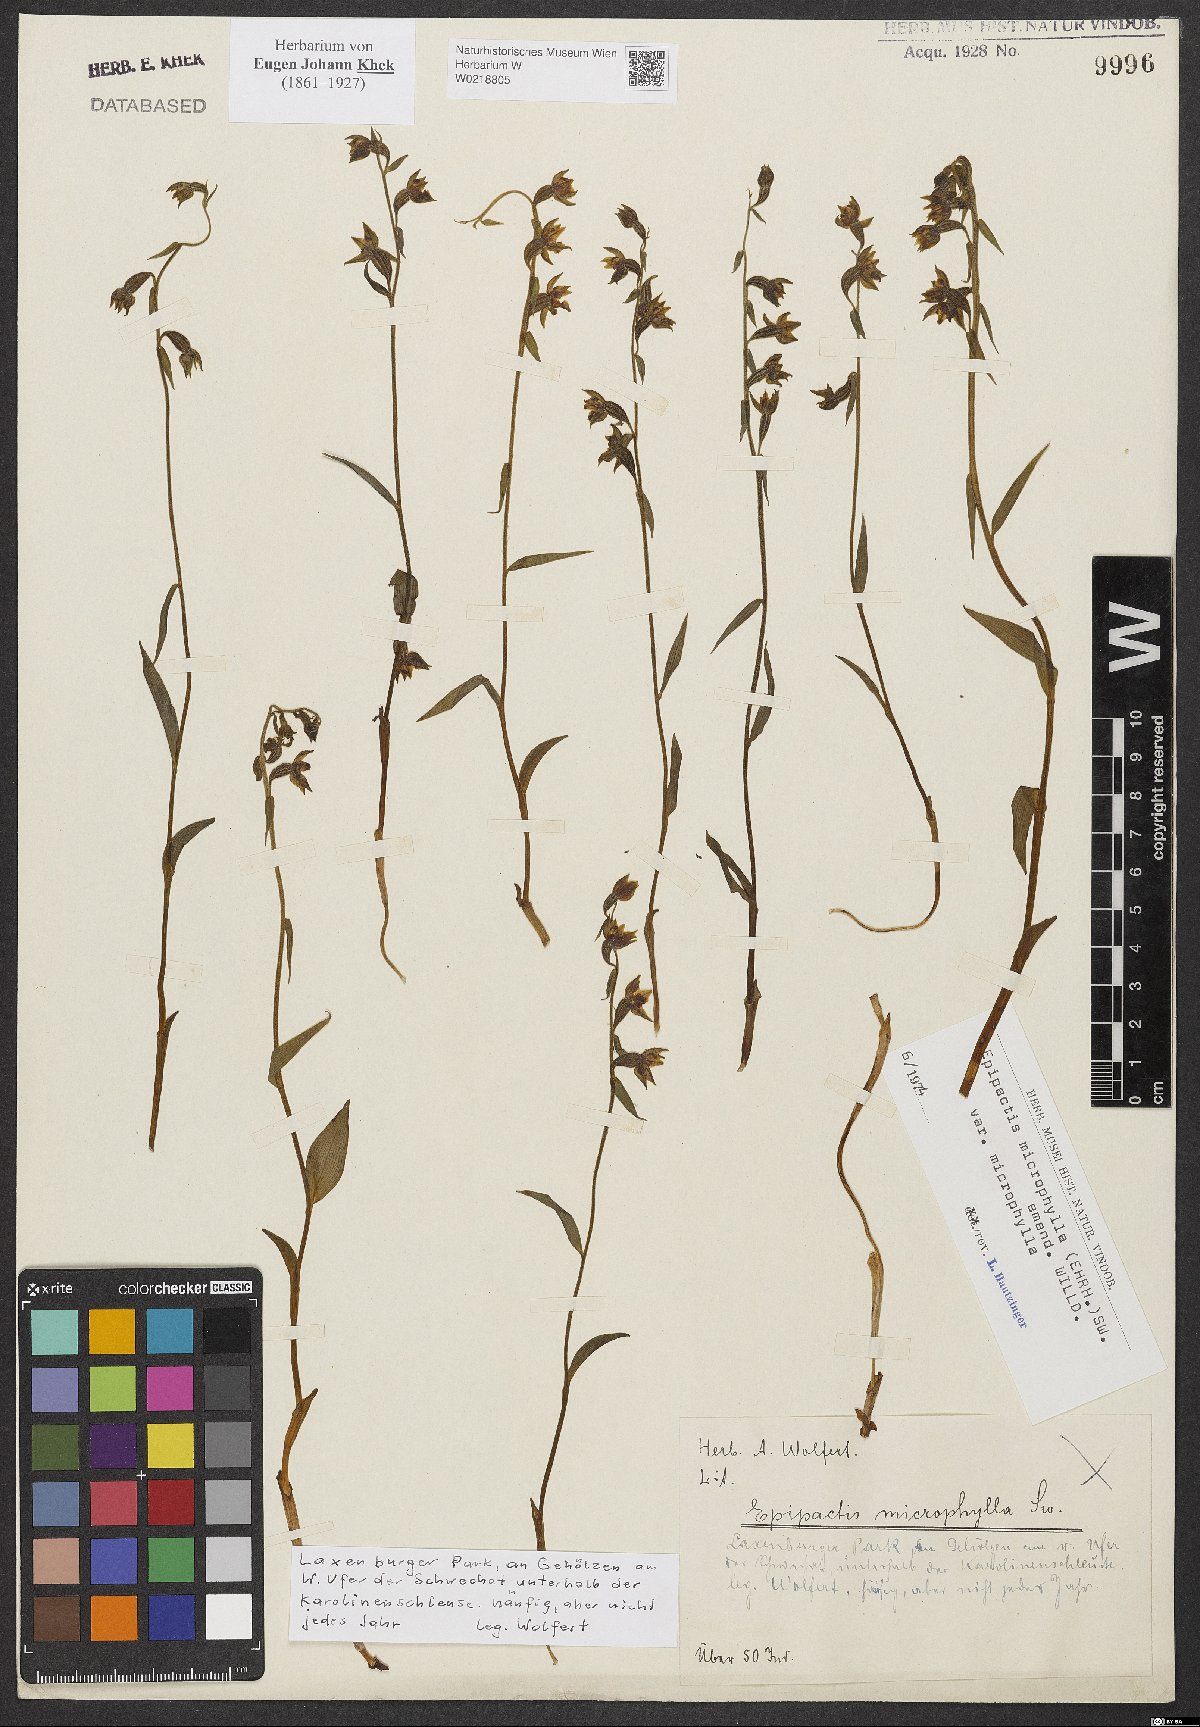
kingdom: Plantae
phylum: Tracheophyta
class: Liliopsida
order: Asparagales
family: Orchidaceae
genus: Epipactis
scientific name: Epipactis microphylla
